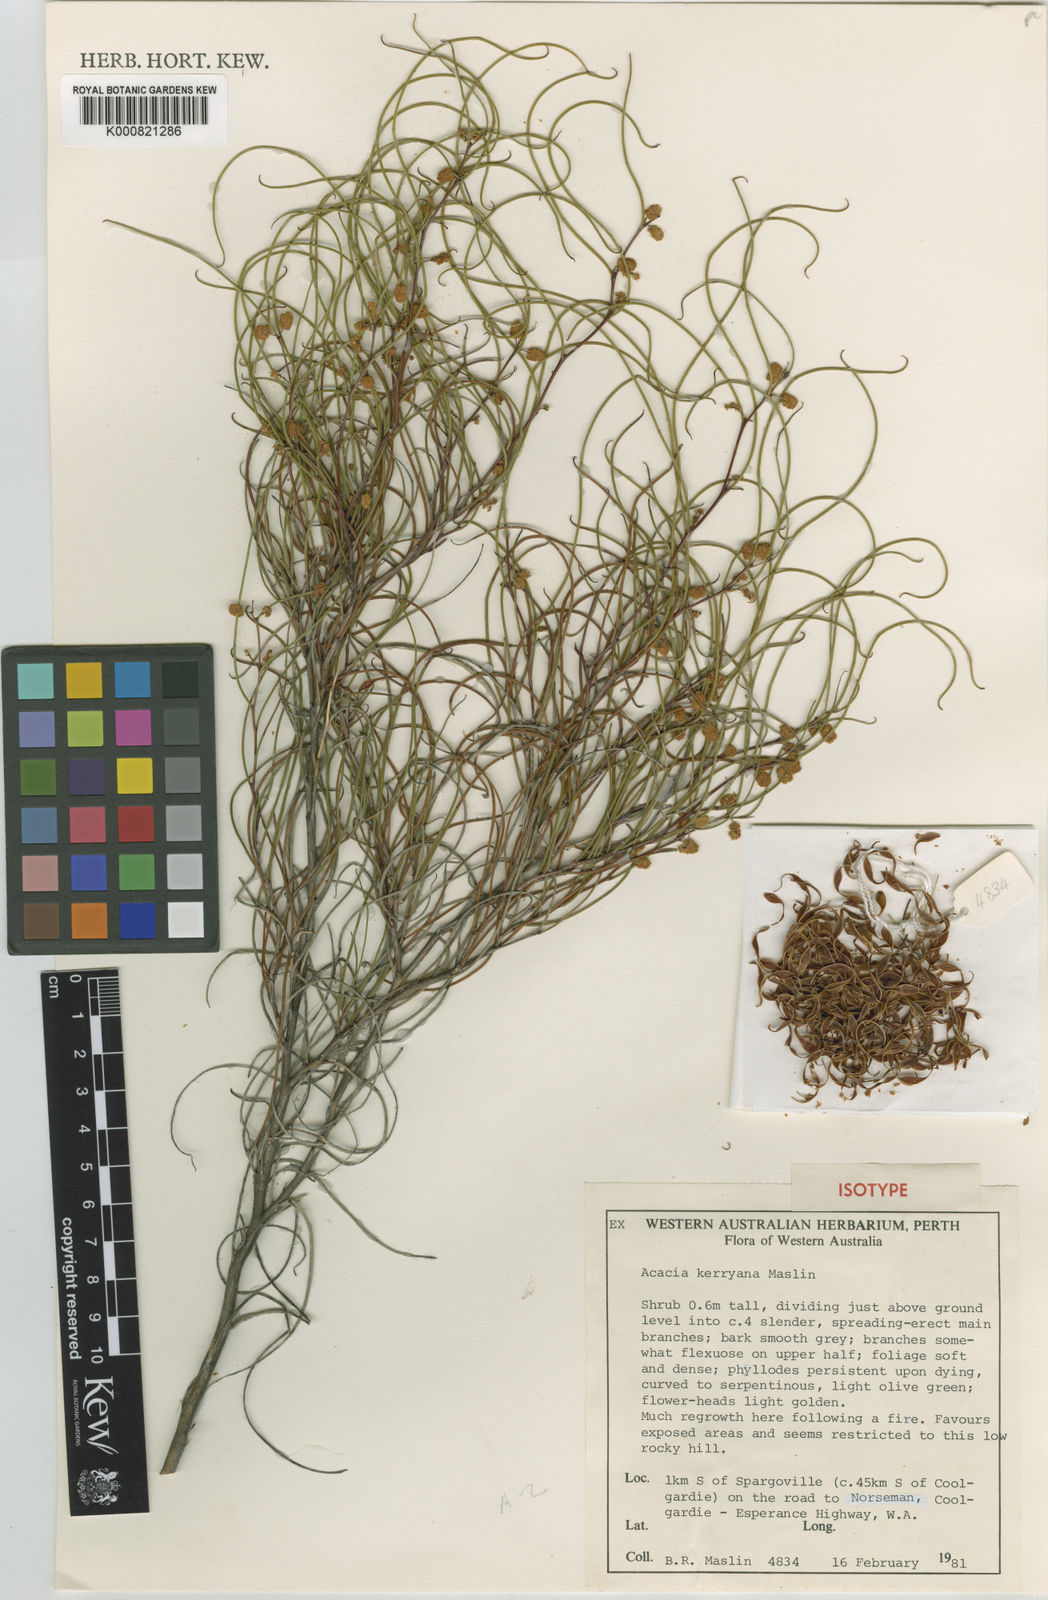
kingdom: Plantae
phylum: Tracheophyta
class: Magnoliopsida
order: Fabales
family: Fabaceae
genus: Acacia
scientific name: Acacia kerryana
